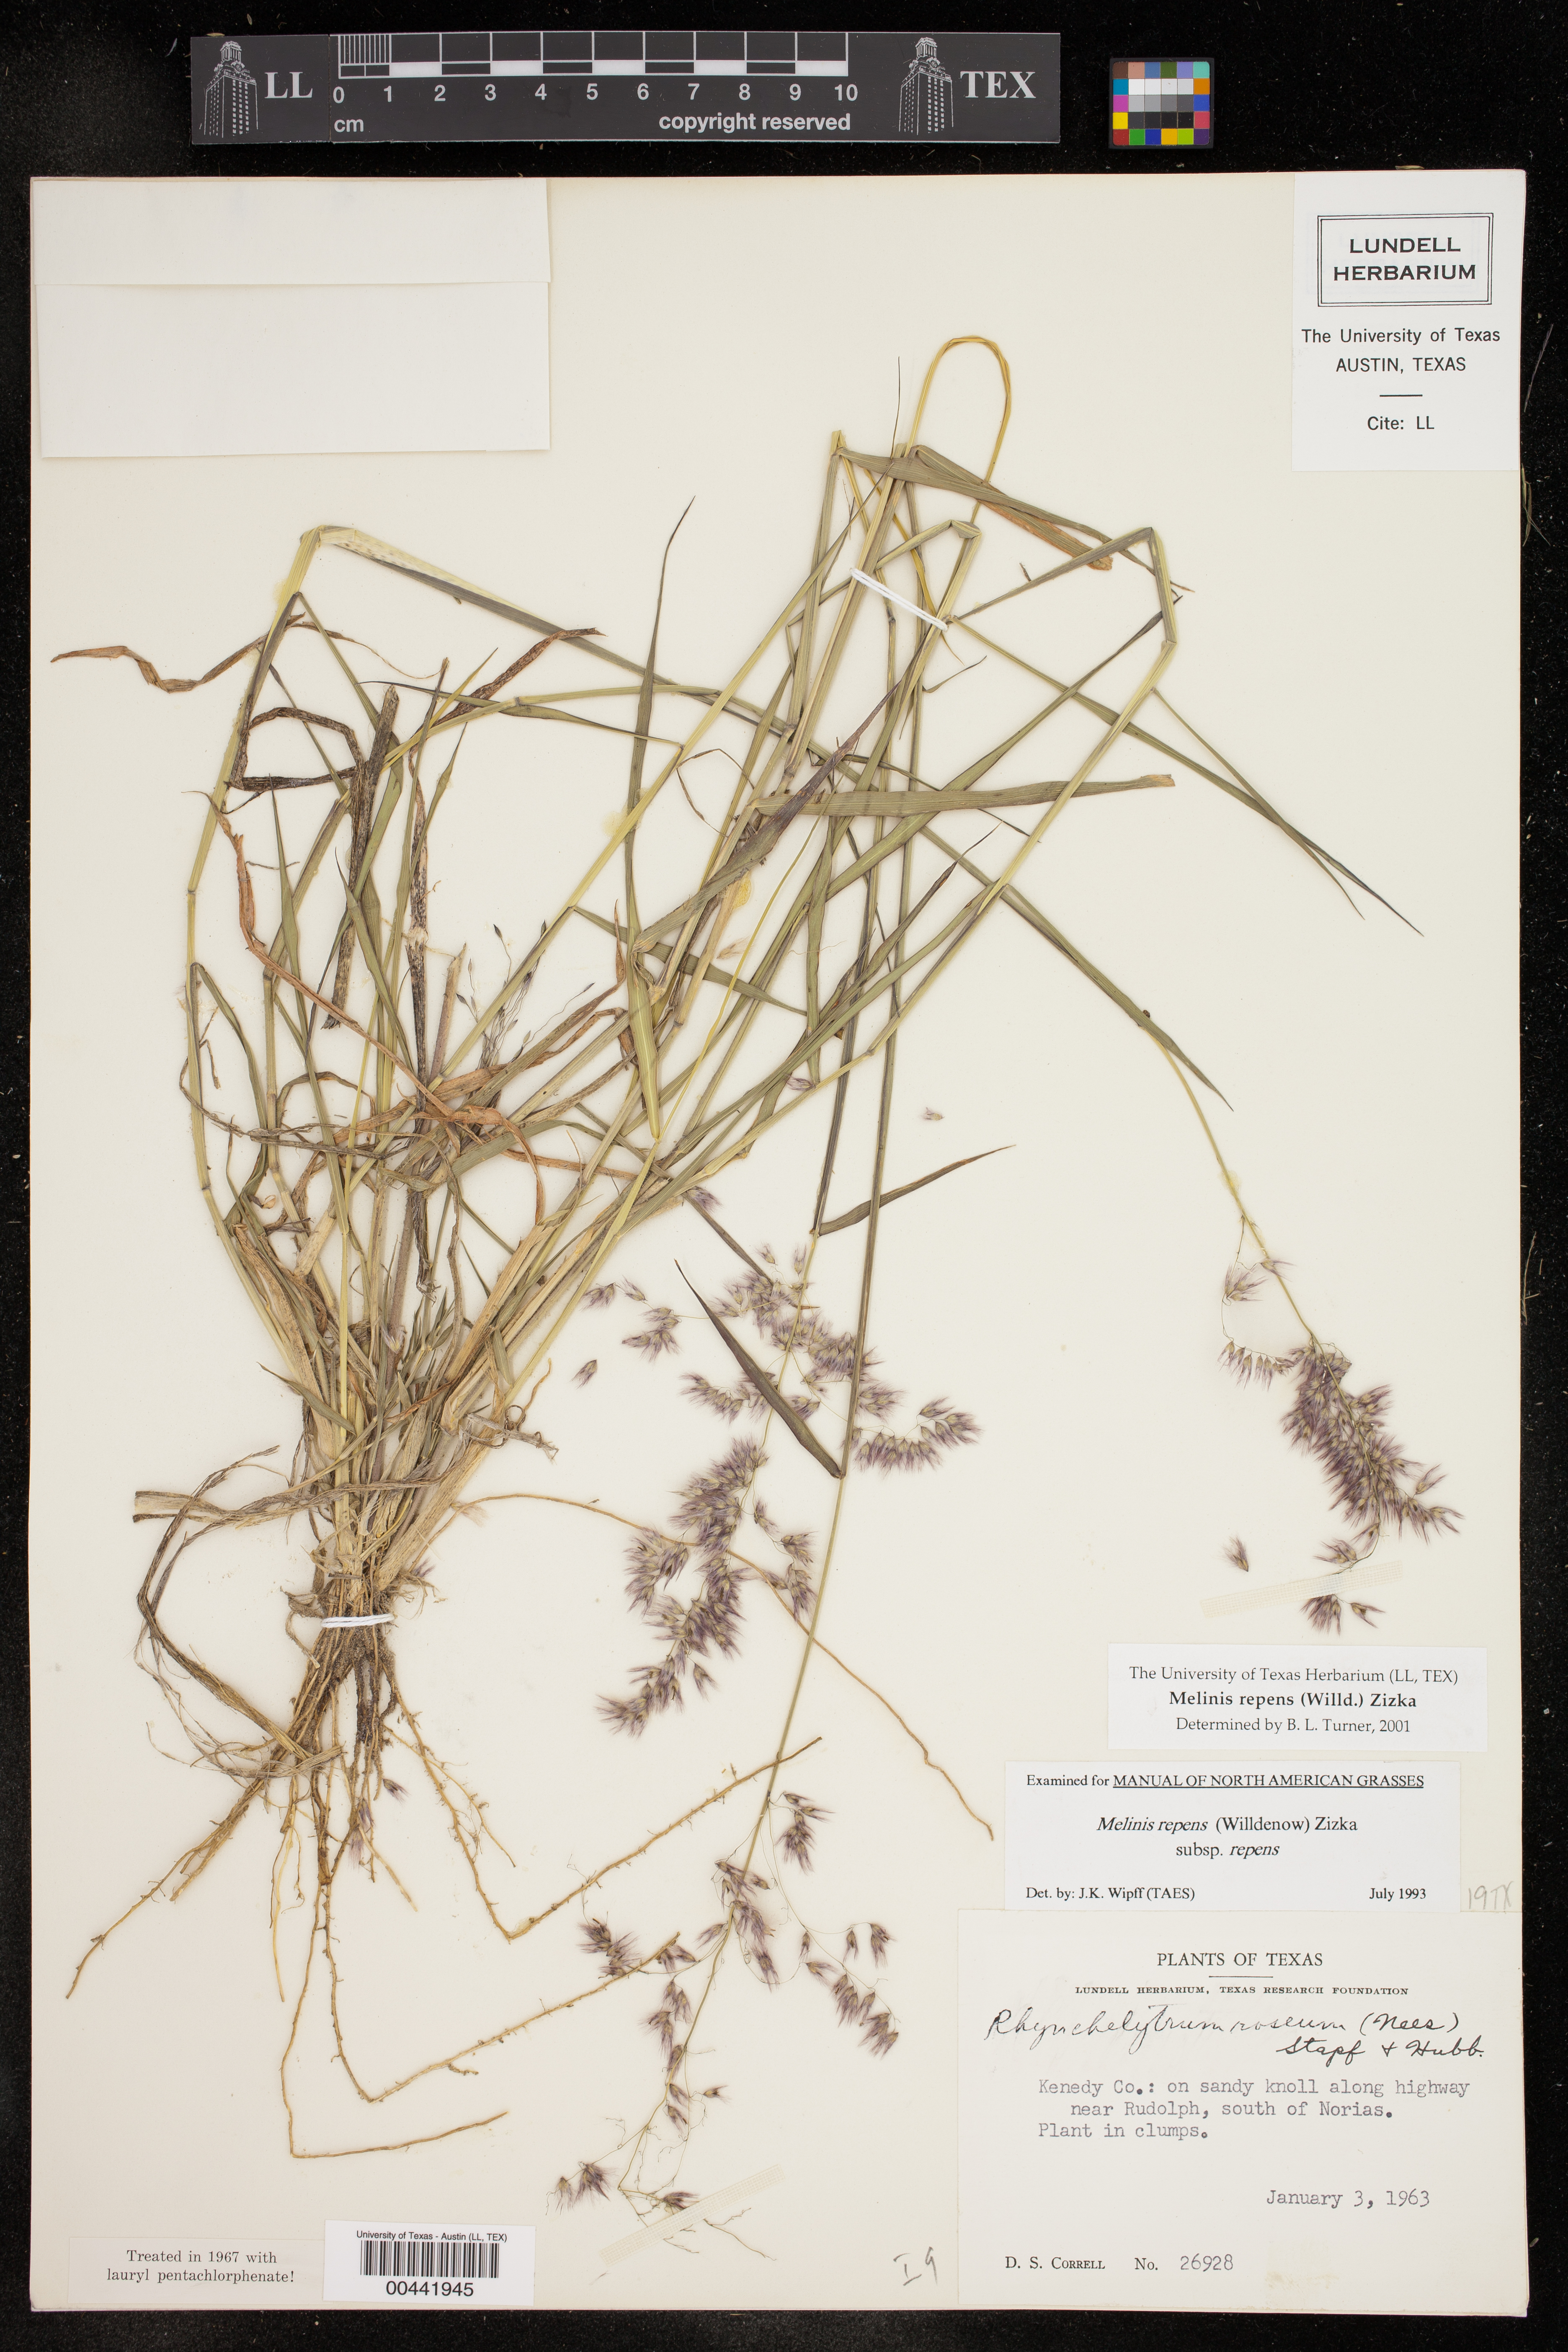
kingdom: Plantae
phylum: Tracheophyta
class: Liliopsida
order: Poales
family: Poaceae
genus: Melinis
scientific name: Melinis repens
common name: Rose natal grass
